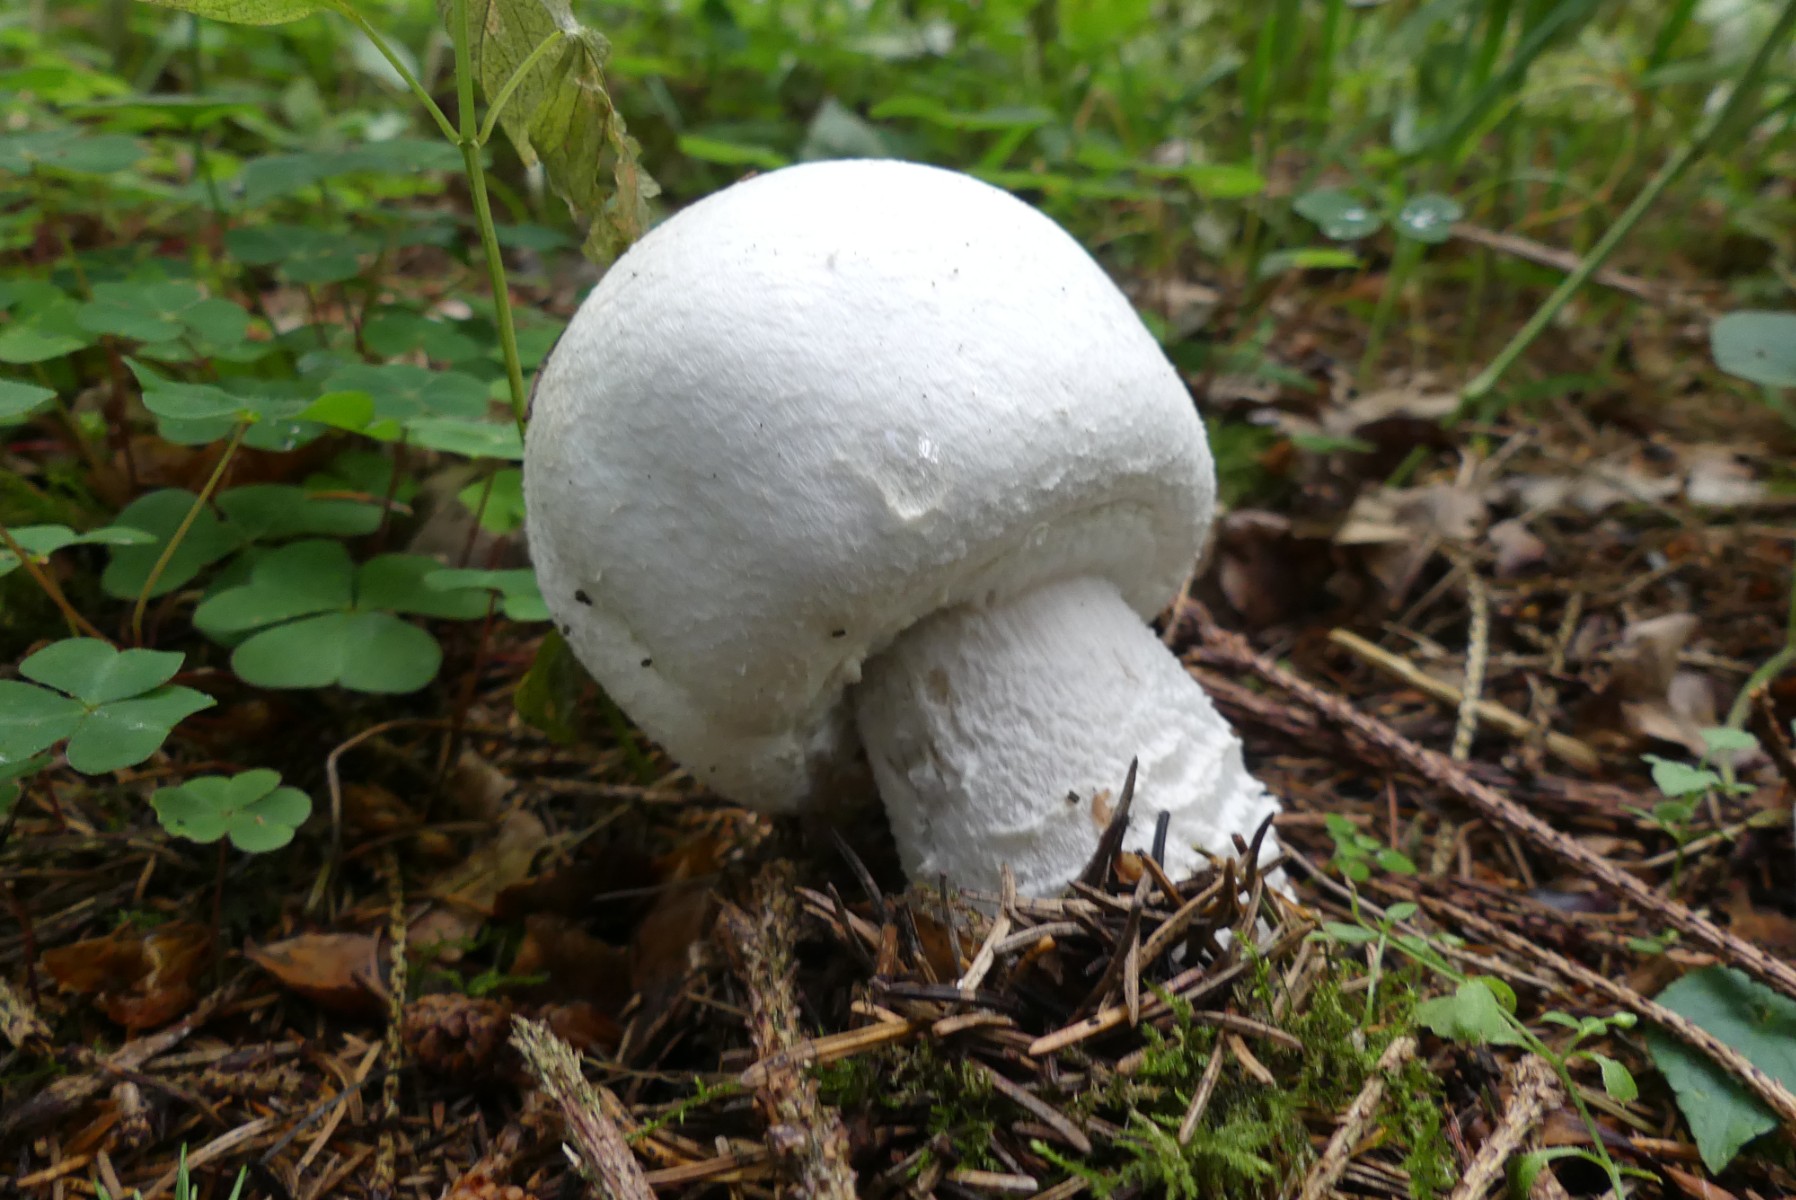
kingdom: Fungi
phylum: Basidiomycota
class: Agaricomycetes
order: Agaricales
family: Agaricaceae
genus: Agaricus
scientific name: Agaricus
